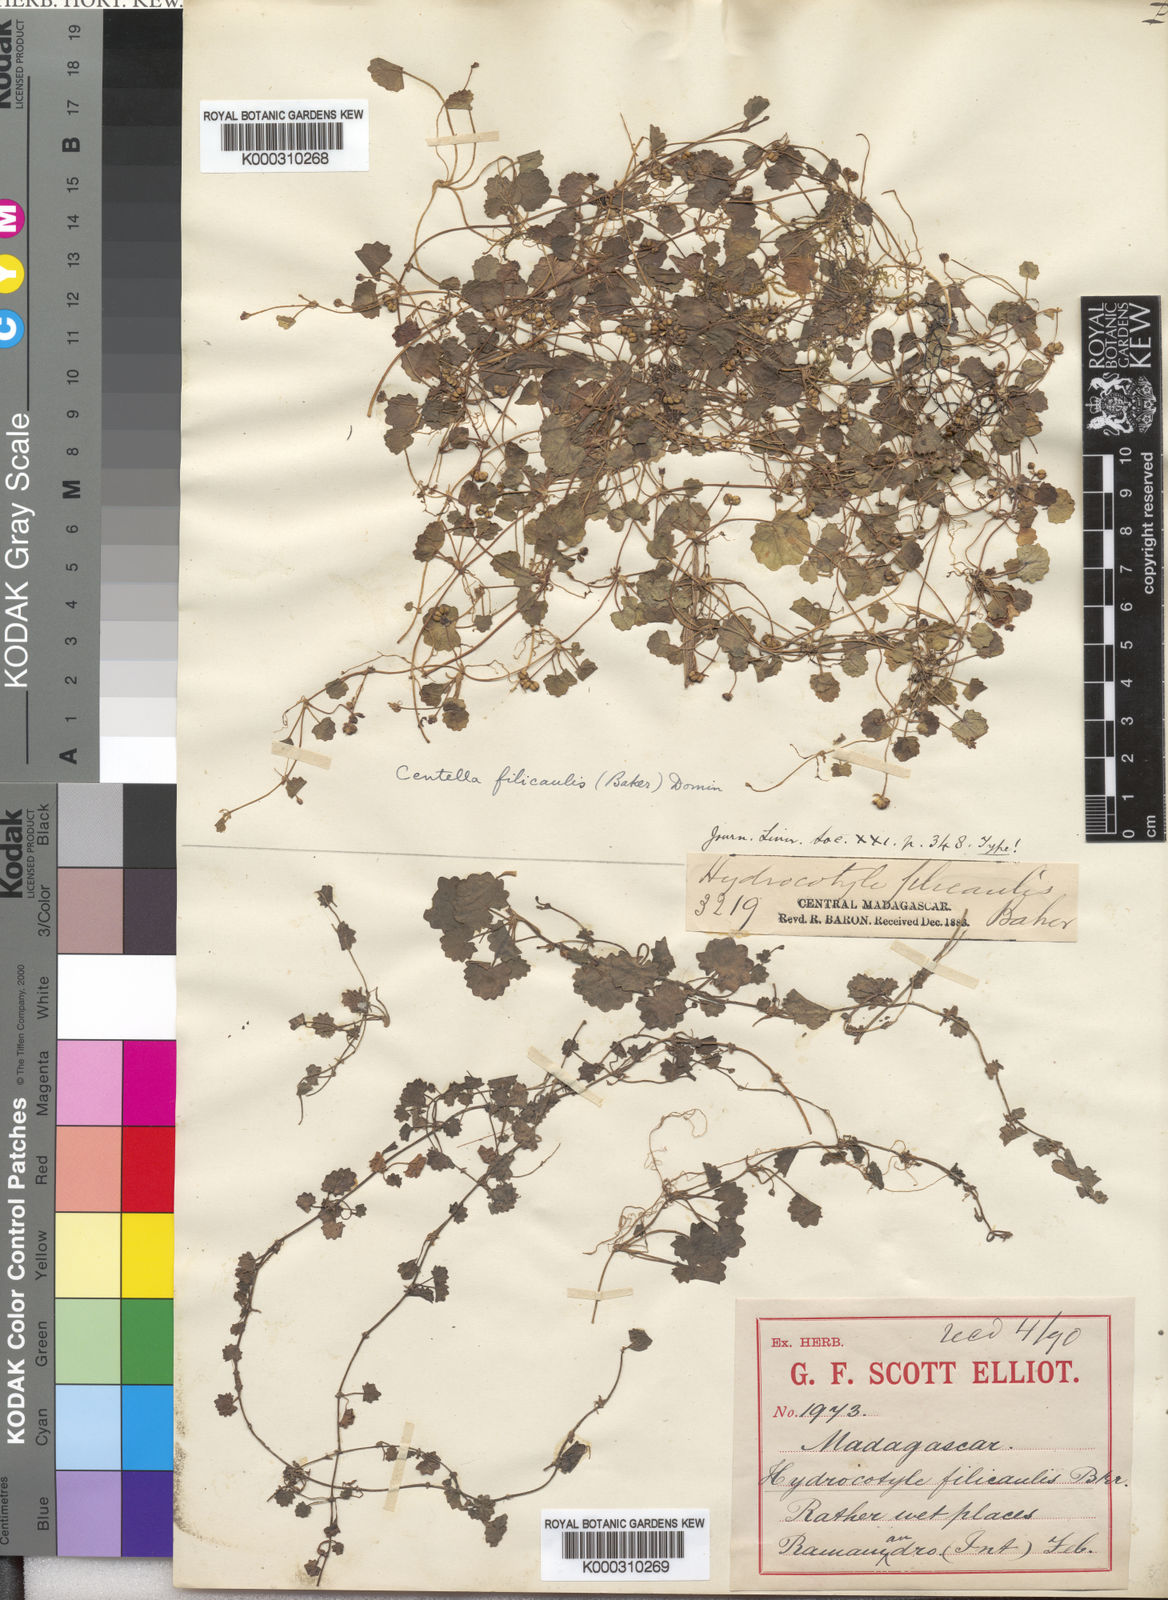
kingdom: Plantae
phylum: Tracheophyta
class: Magnoliopsida
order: Apiales
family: Apiaceae
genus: Centella
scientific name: Centella tussilaginifolia
